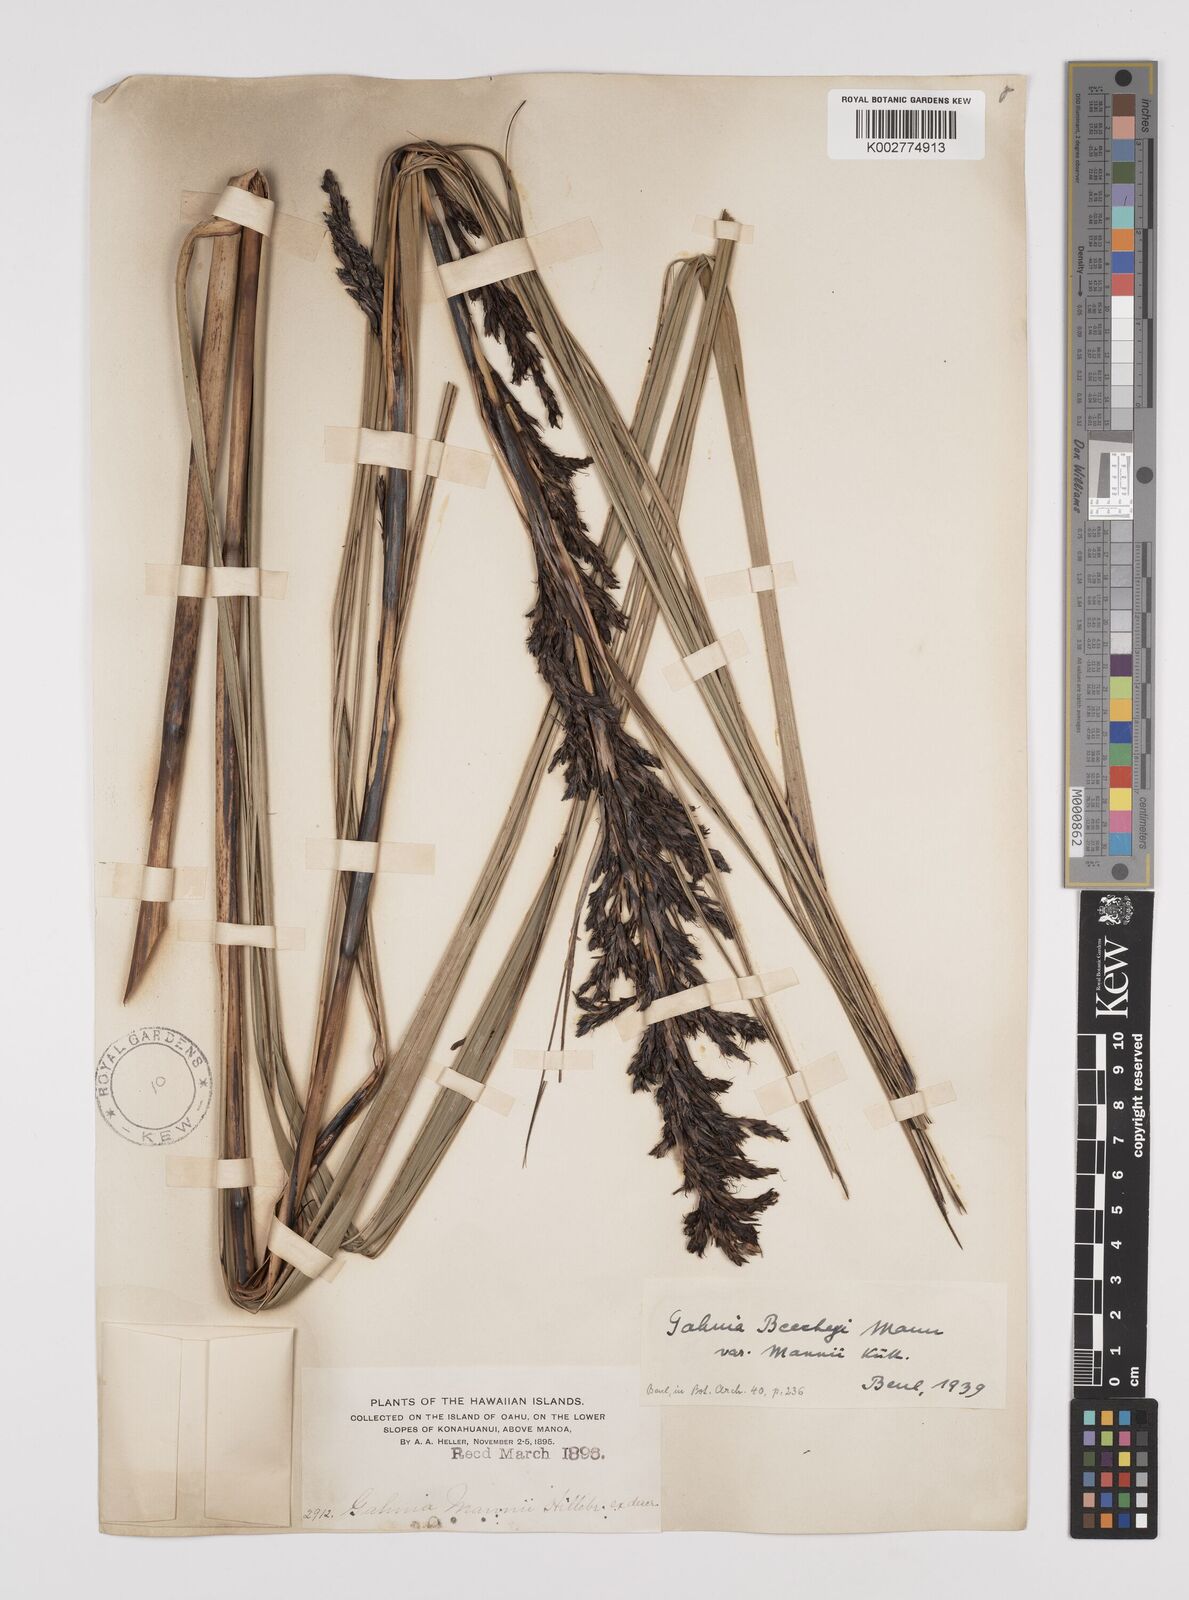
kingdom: Plantae
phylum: Tracheophyta
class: Liliopsida
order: Poales
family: Cyperaceae
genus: Gahnia
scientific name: Gahnia beecheyi
